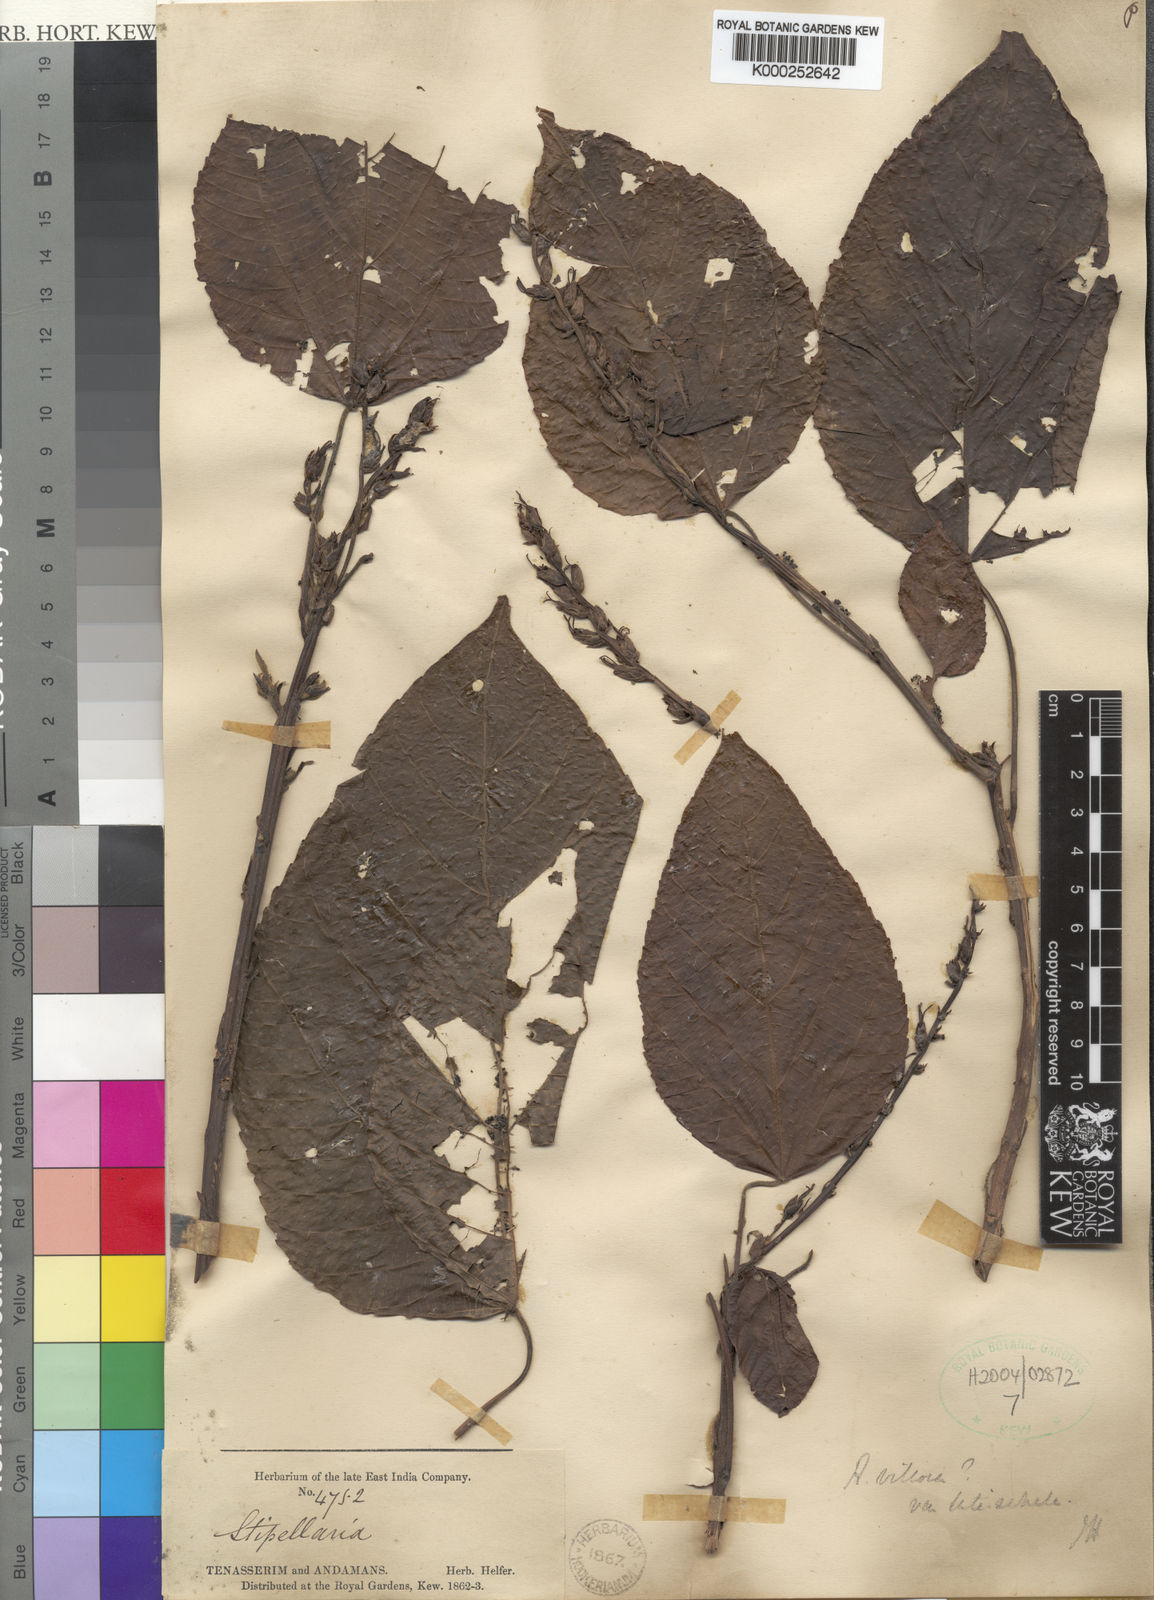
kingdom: Plantae
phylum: Tracheophyta
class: Magnoliopsida
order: Malpighiales
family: Euphorbiaceae
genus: Alchornea
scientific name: Alchornea
